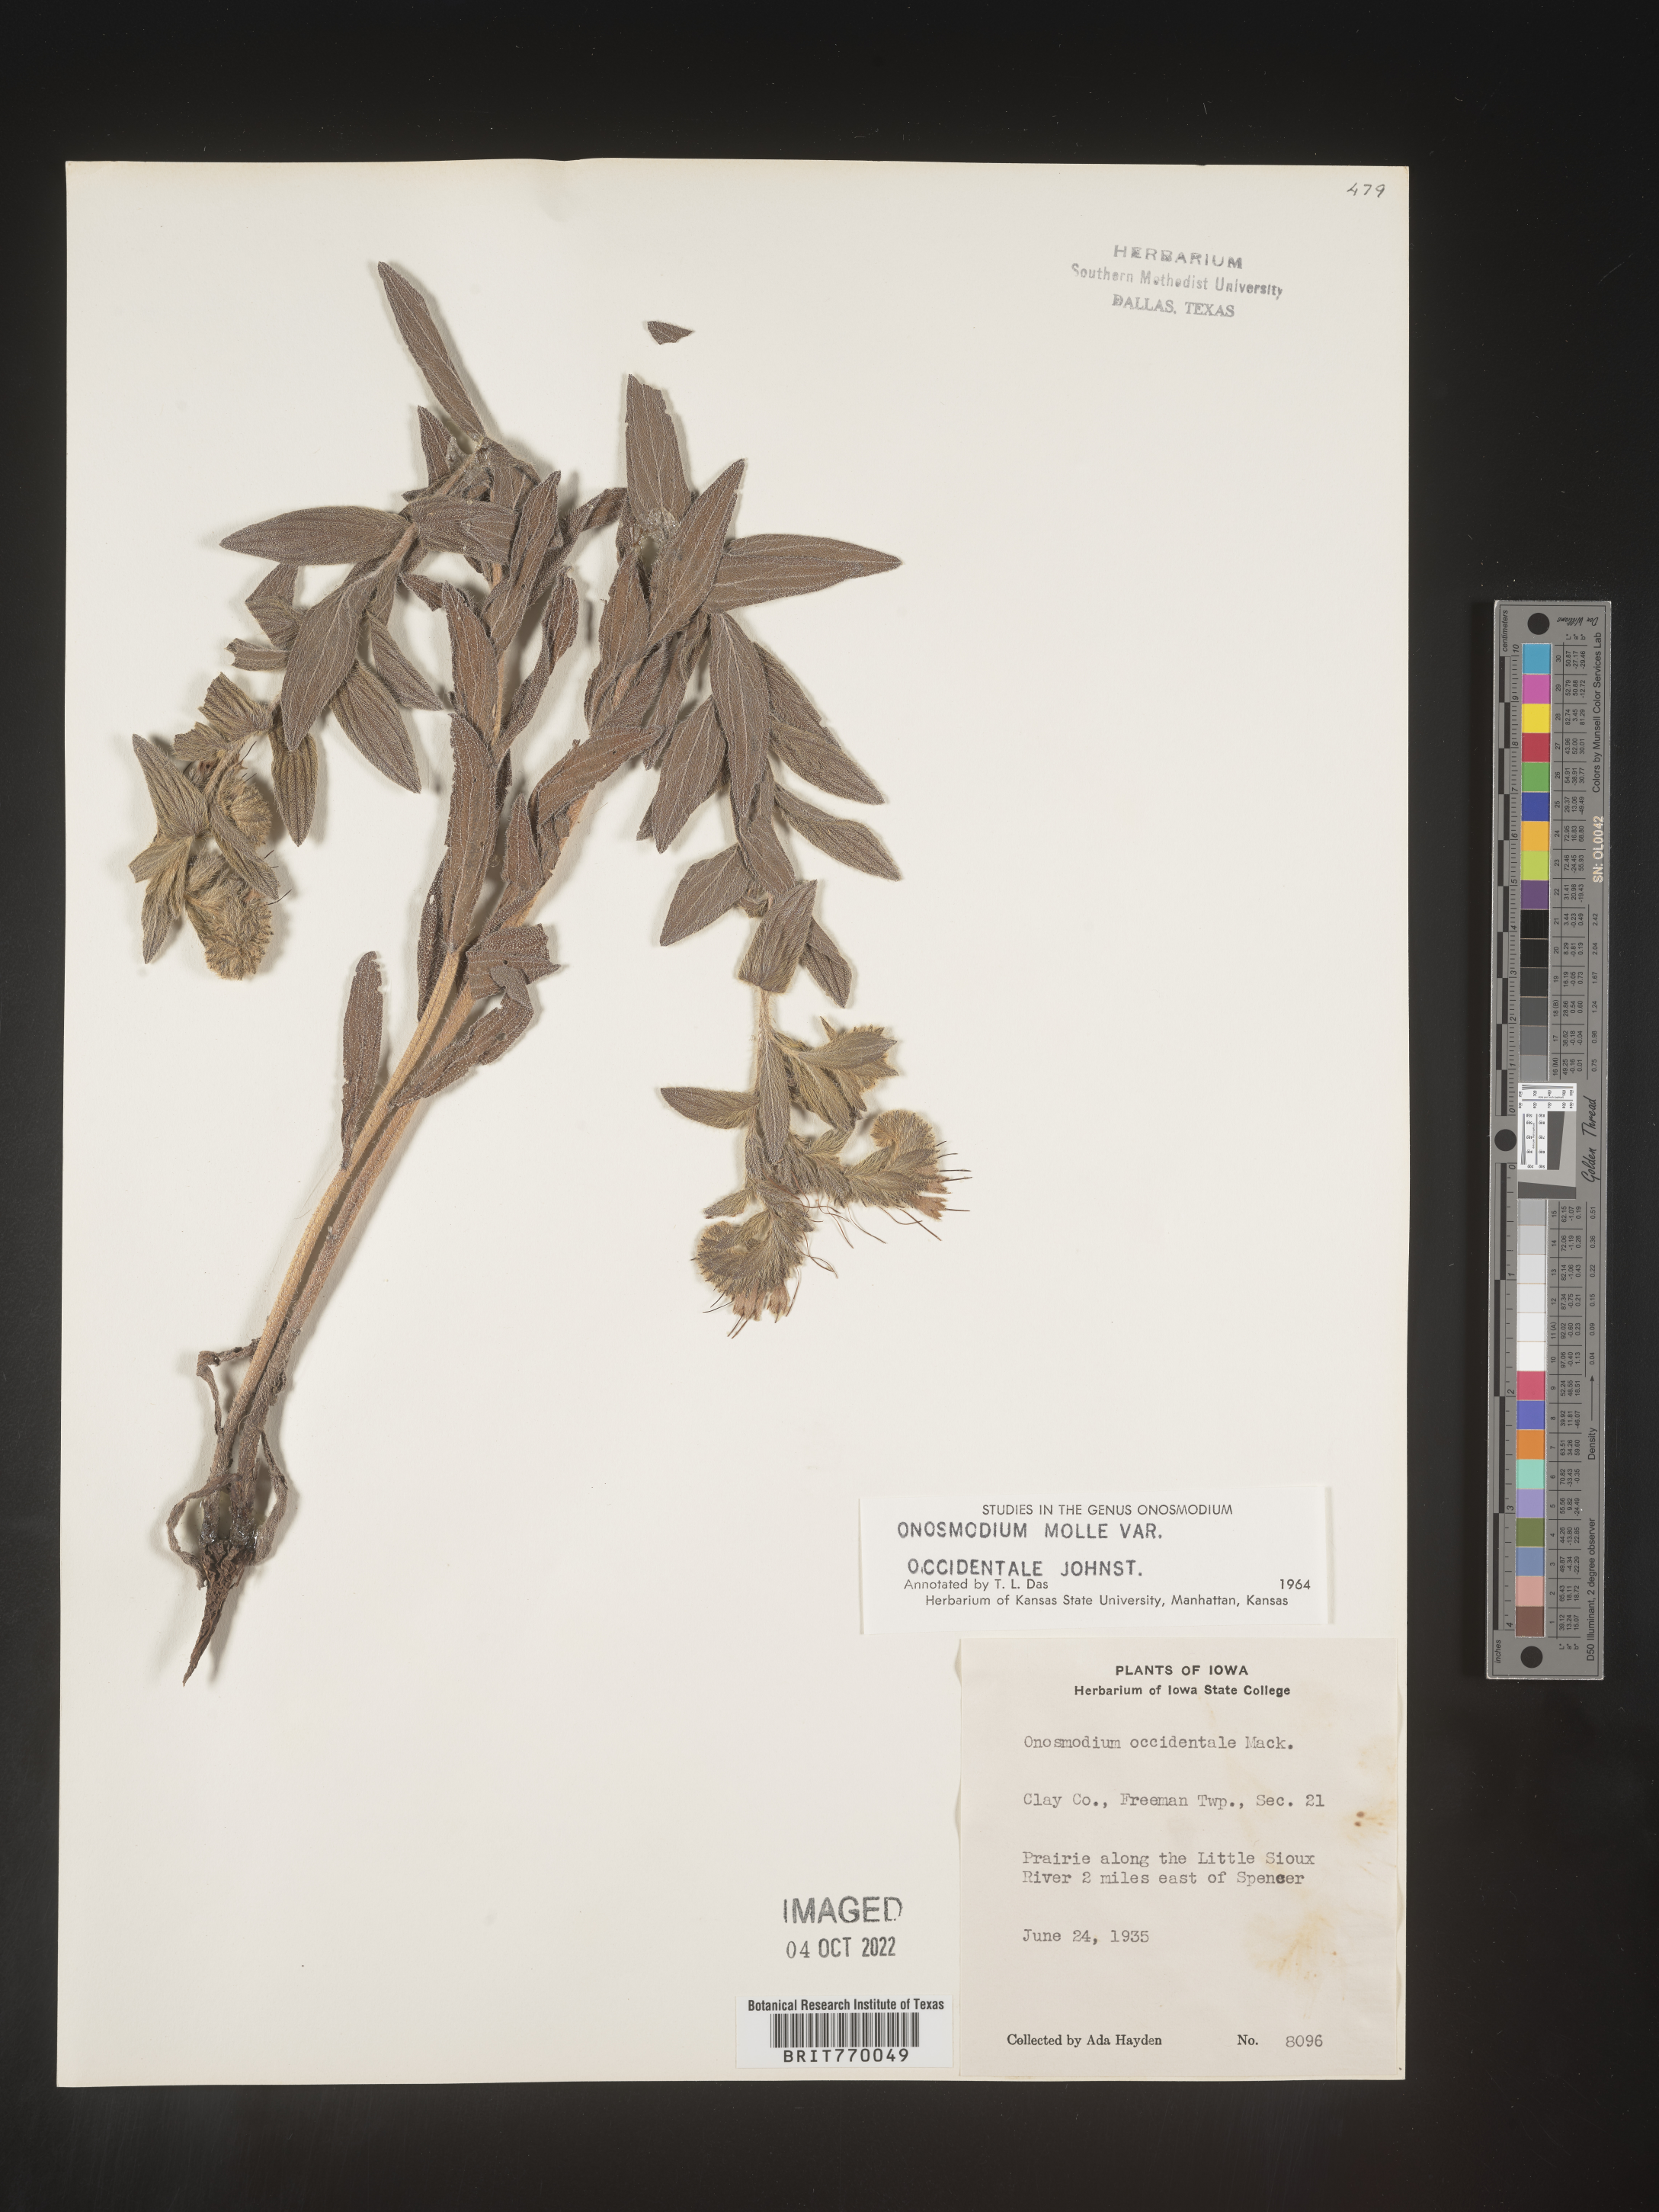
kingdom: Plantae
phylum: Tracheophyta
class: Magnoliopsida
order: Boraginales
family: Boraginaceae
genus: Lithospermum
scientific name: Lithospermum occidentale
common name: Western false gromwell
